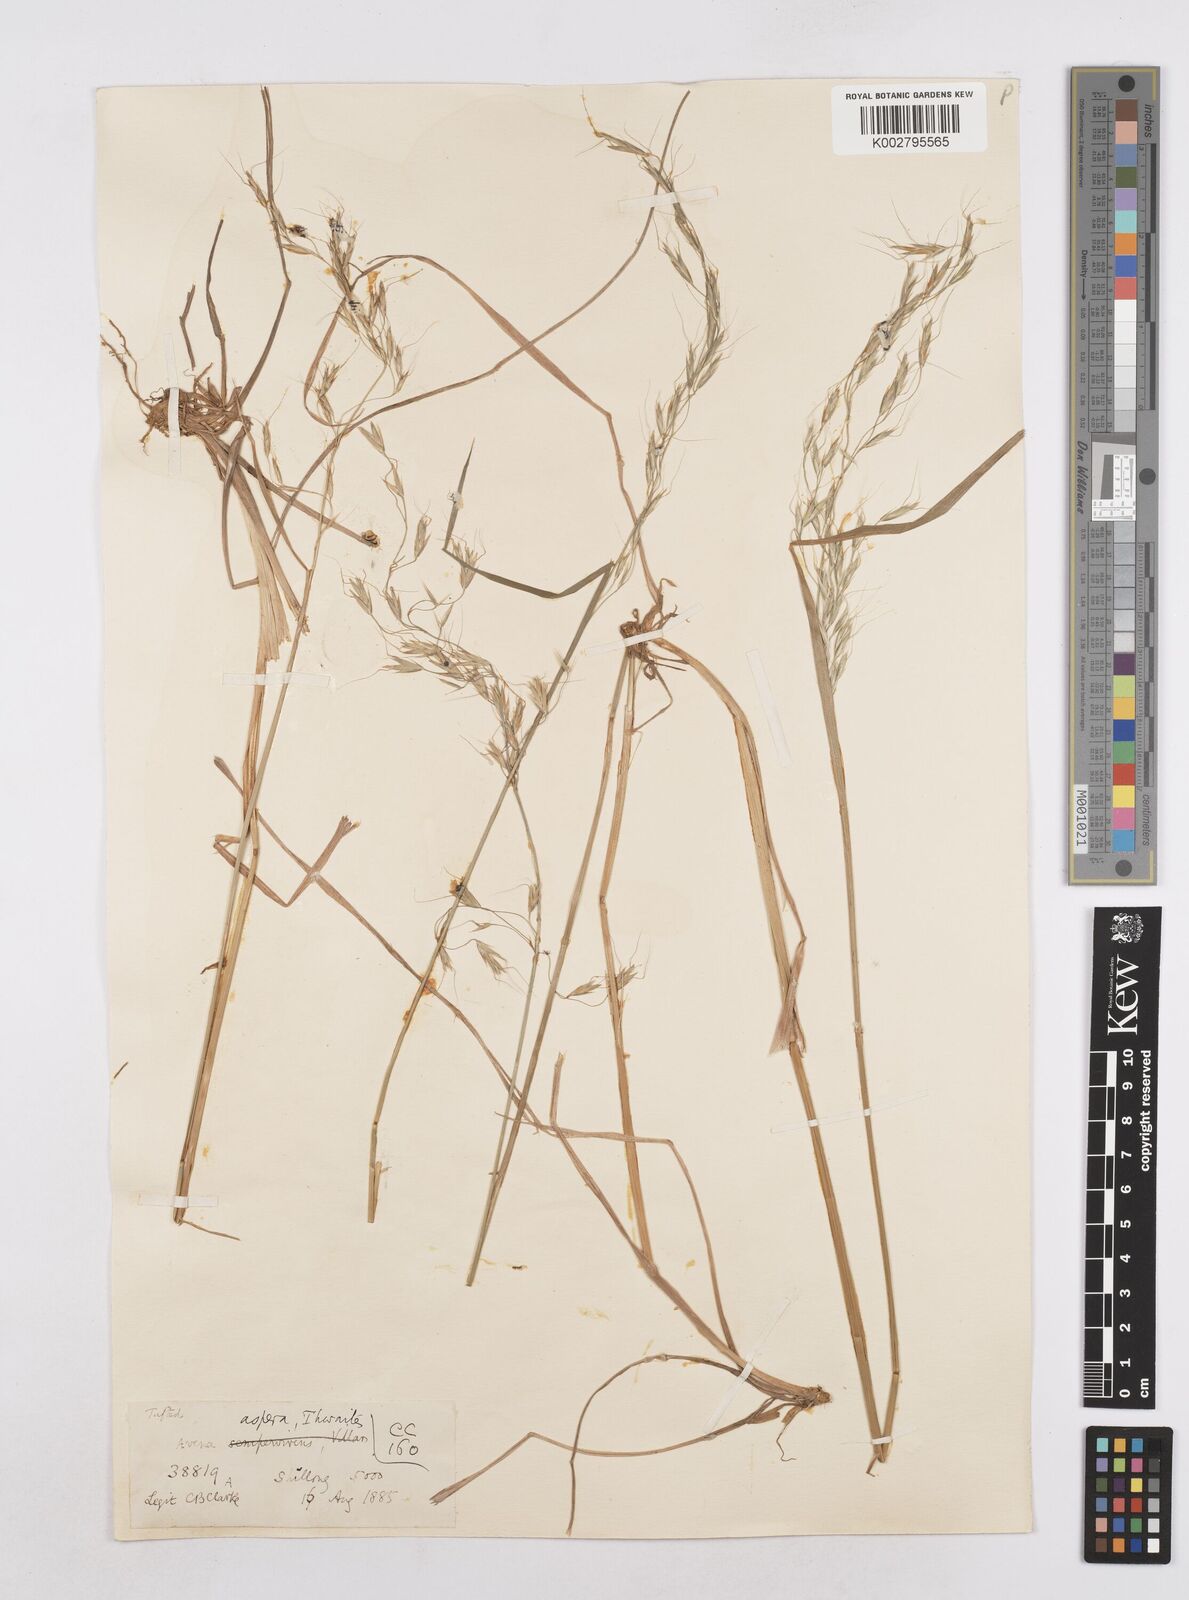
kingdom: Plantae
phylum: Tracheophyta
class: Liliopsida
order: Poales
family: Poaceae
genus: Trisetopsis
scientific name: Trisetopsis junghuhnii
